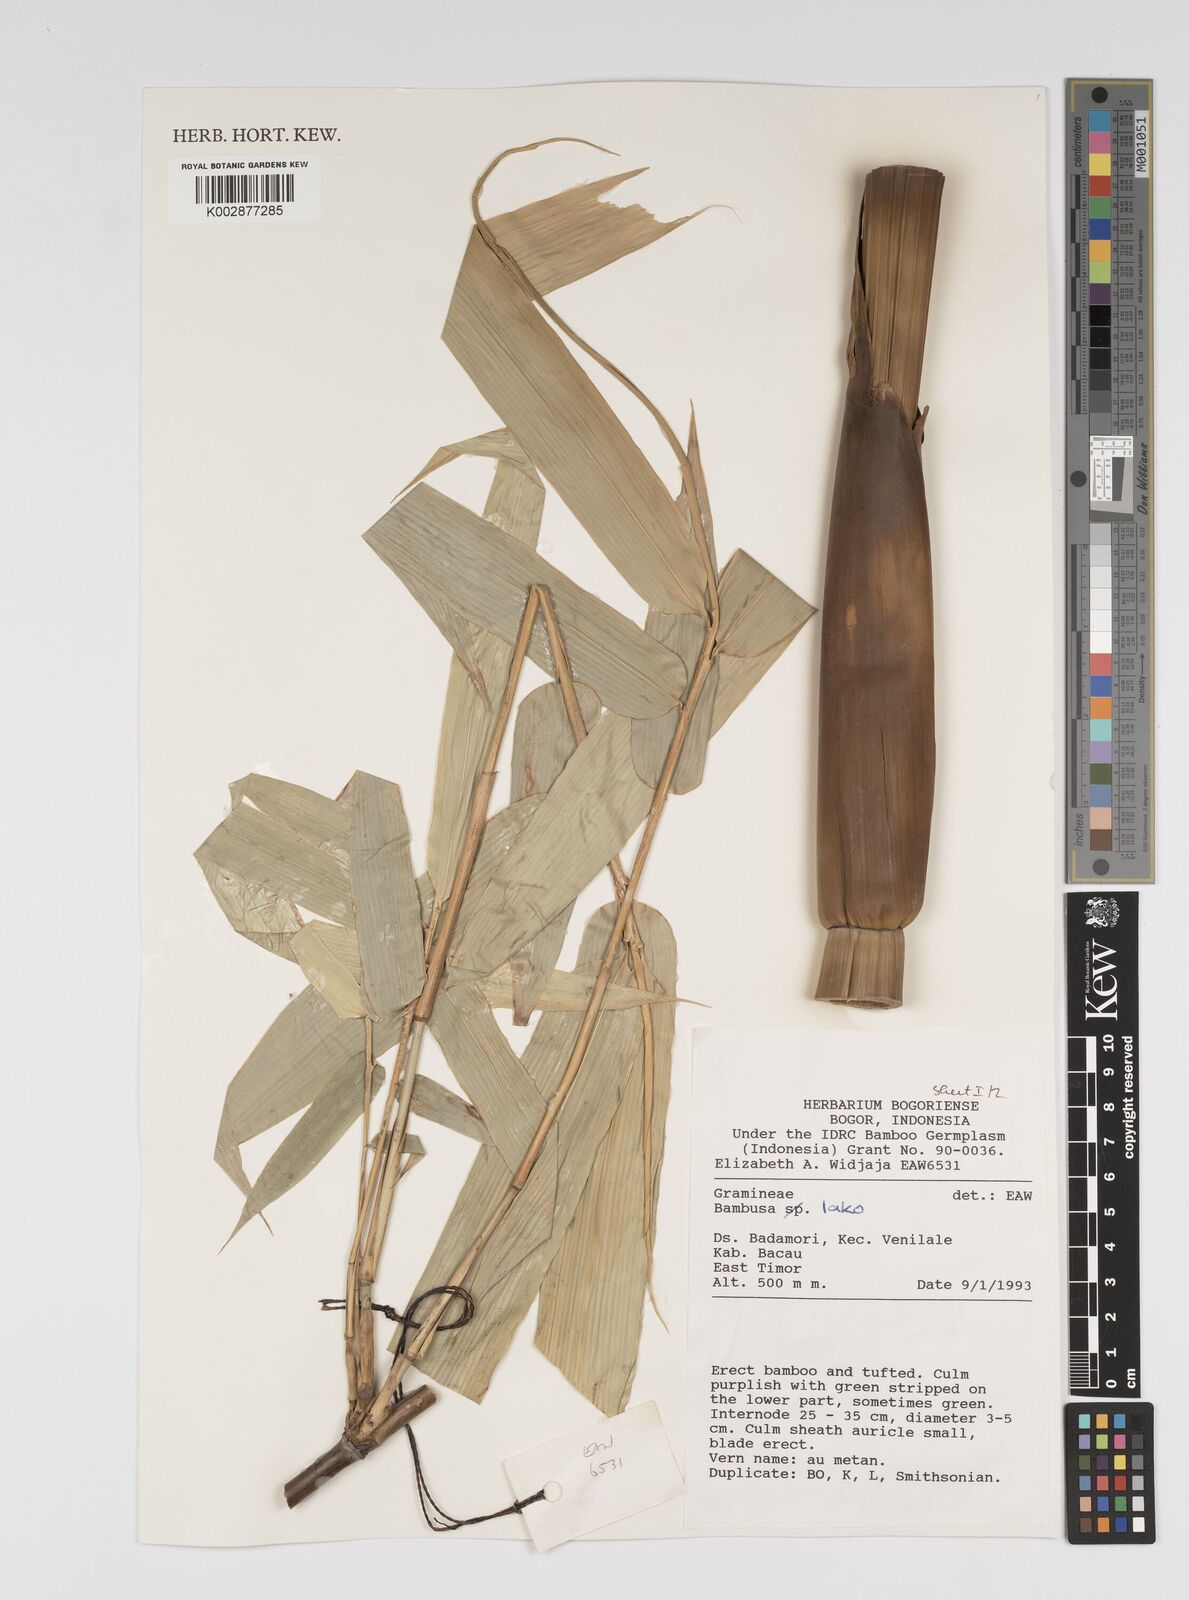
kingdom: Plantae
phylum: Tracheophyta
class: Liliopsida
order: Poales
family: Poaceae
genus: Bambusa
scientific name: Bambusa lako
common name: Timor black bamboo
